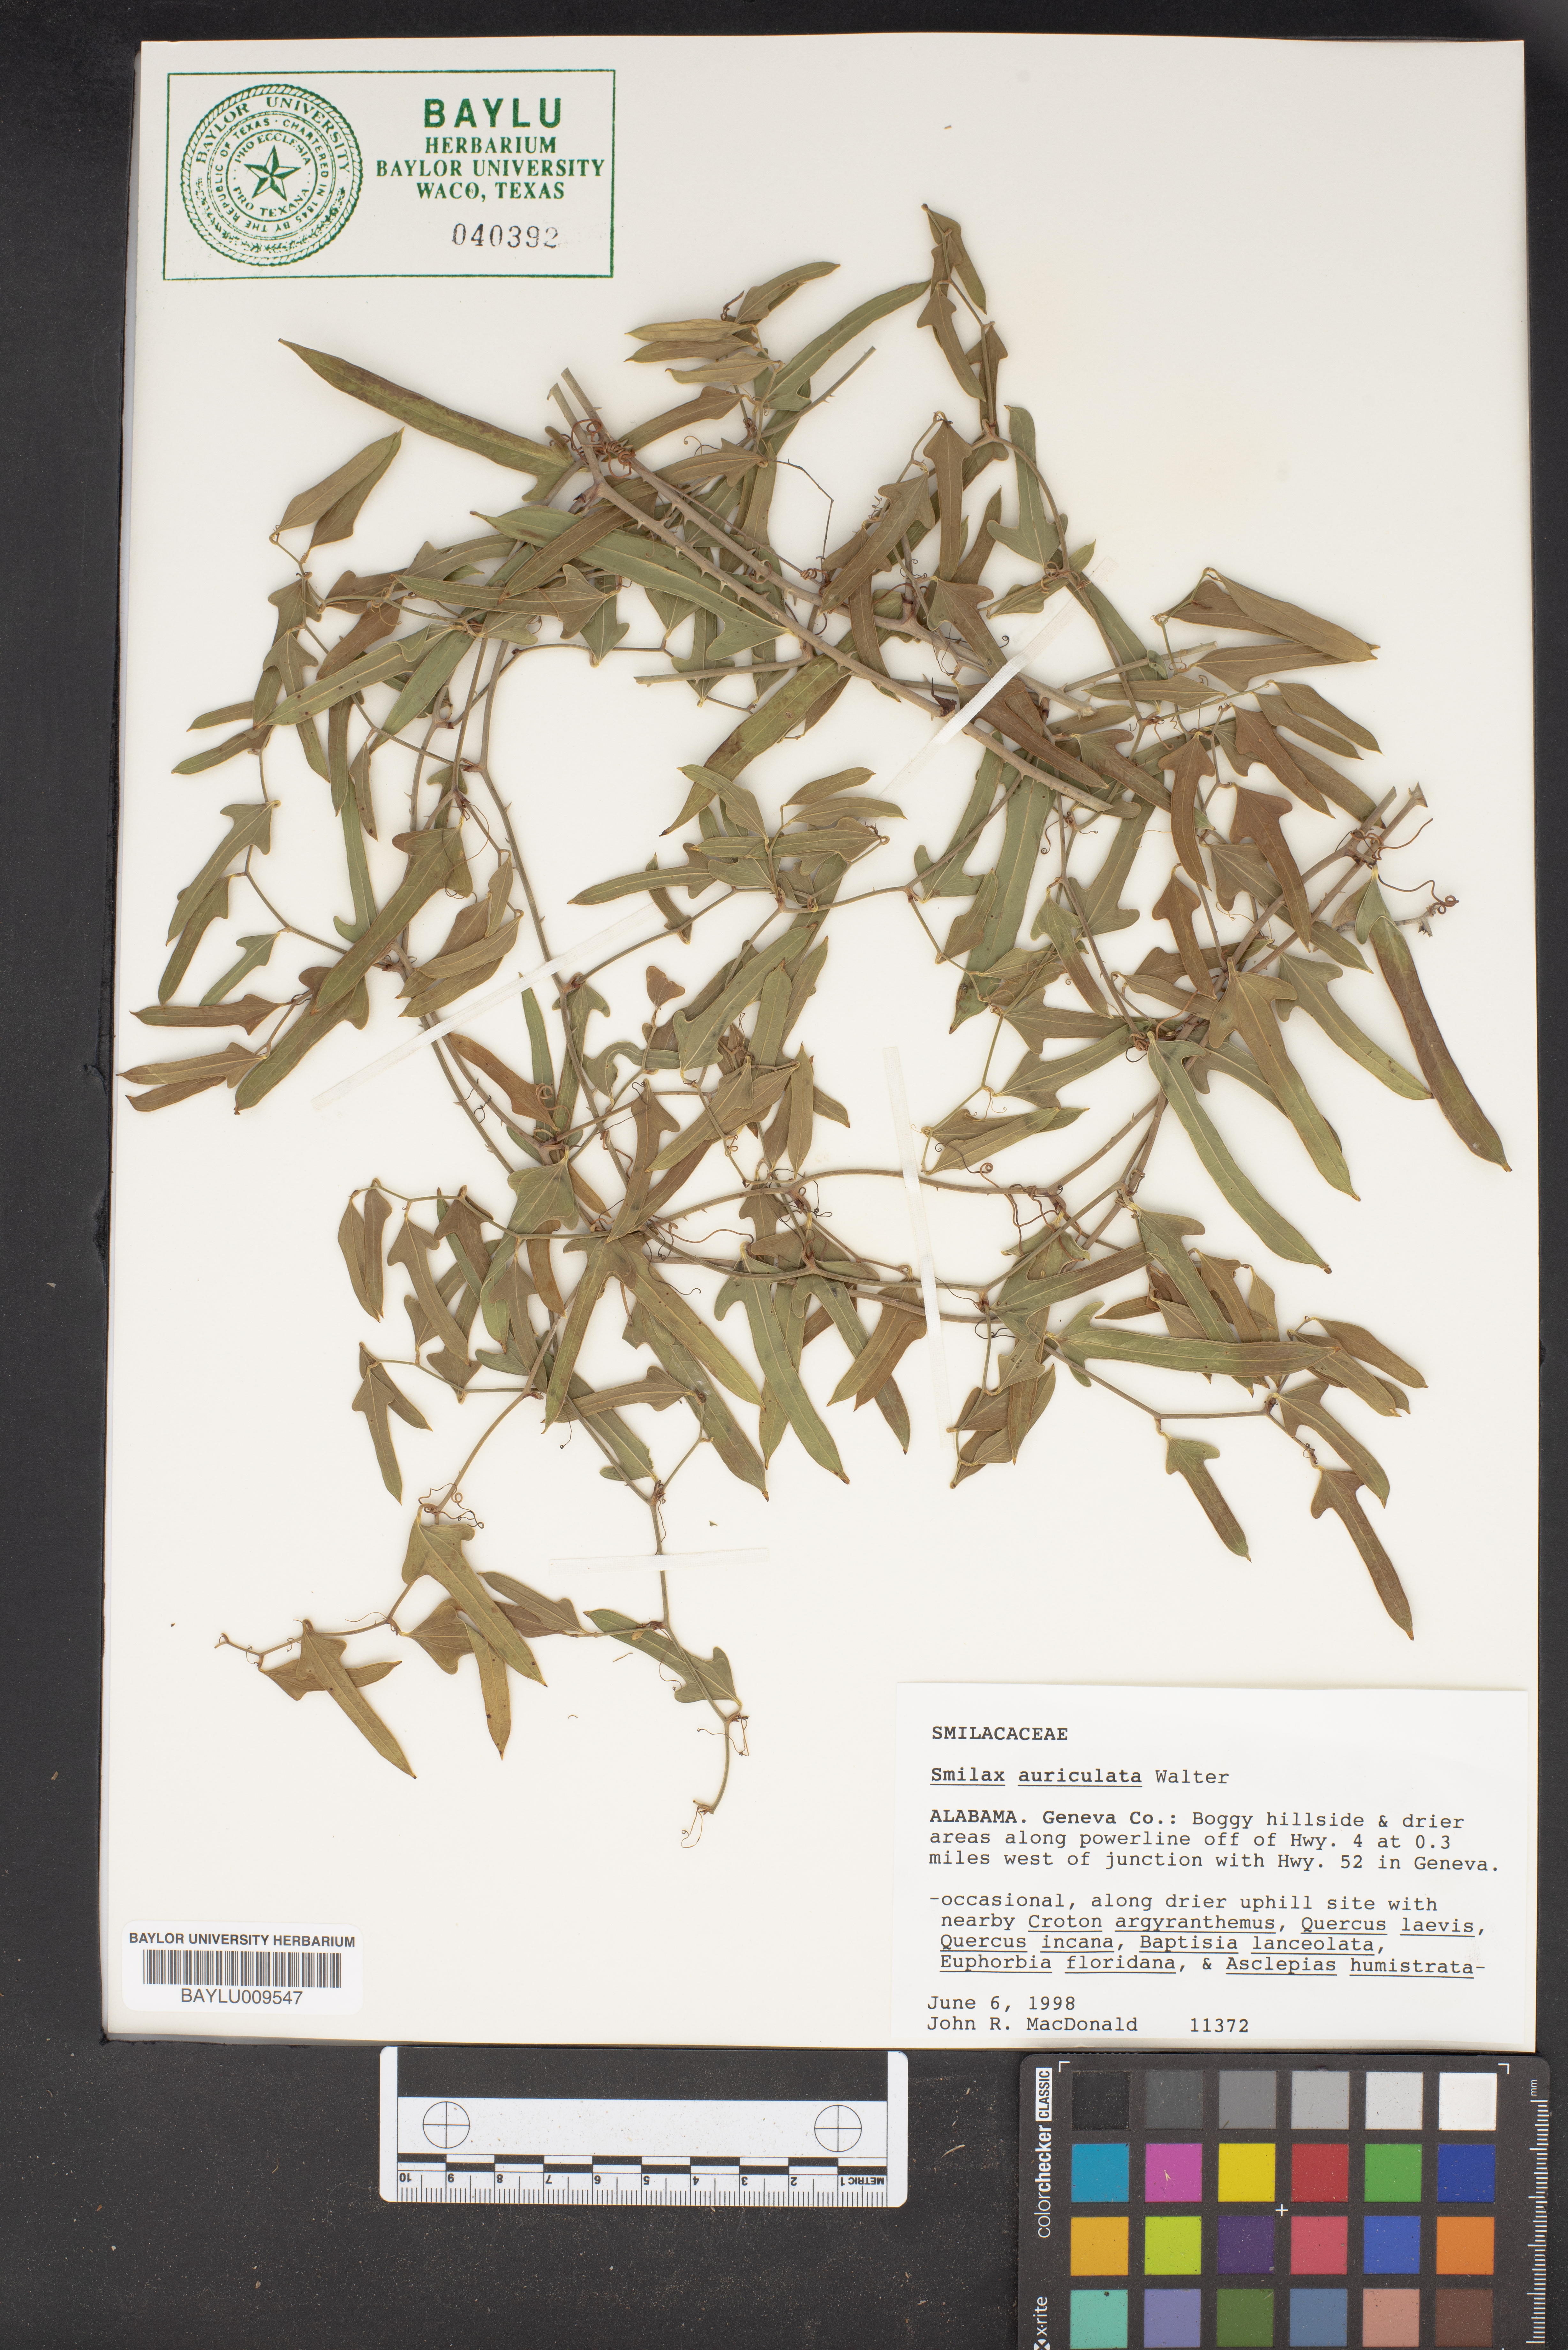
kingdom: Plantae
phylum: Tracheophyta
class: Liliopsida
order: Liliales
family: Smilacaceae
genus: Smilax
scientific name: Smilax auriculata
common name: Wild bamboo
